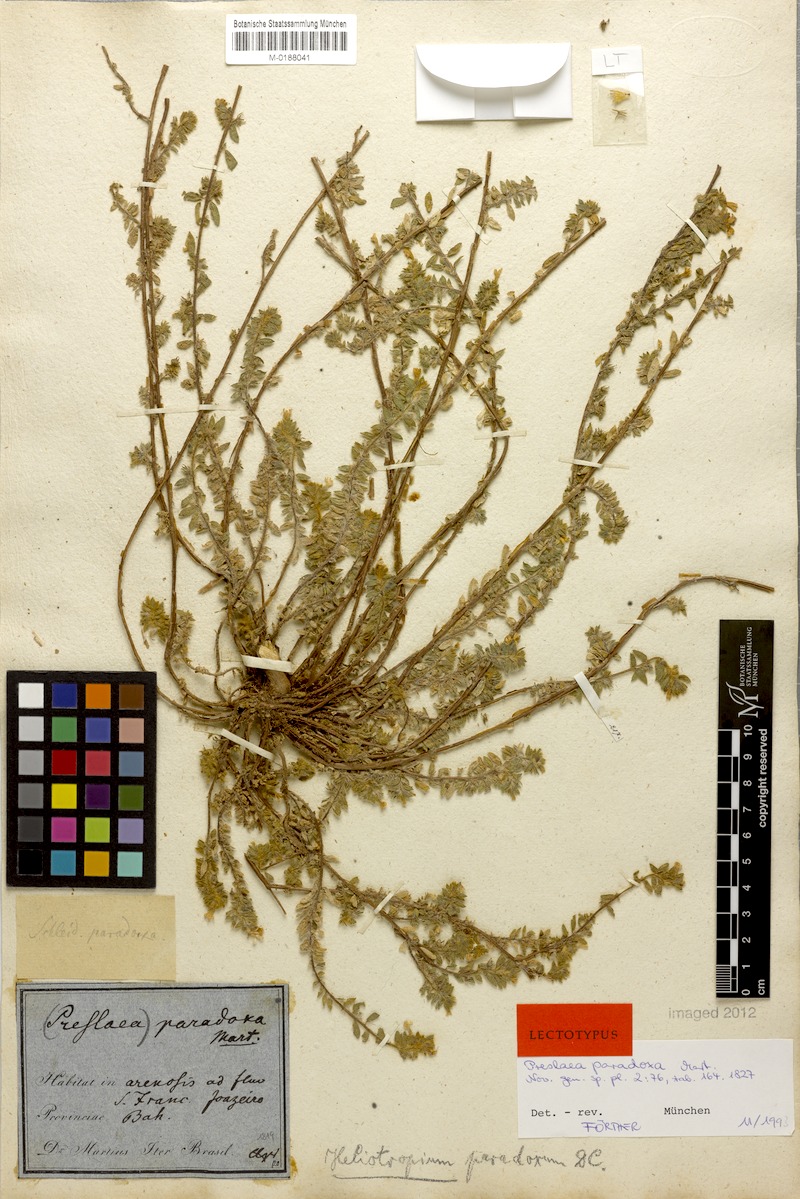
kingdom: Plantae
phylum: Tracheophyta
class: Magnoliopsida
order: Boraginales
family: Heliotropiaceae
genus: Euploca
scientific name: Euploca paradoxa
